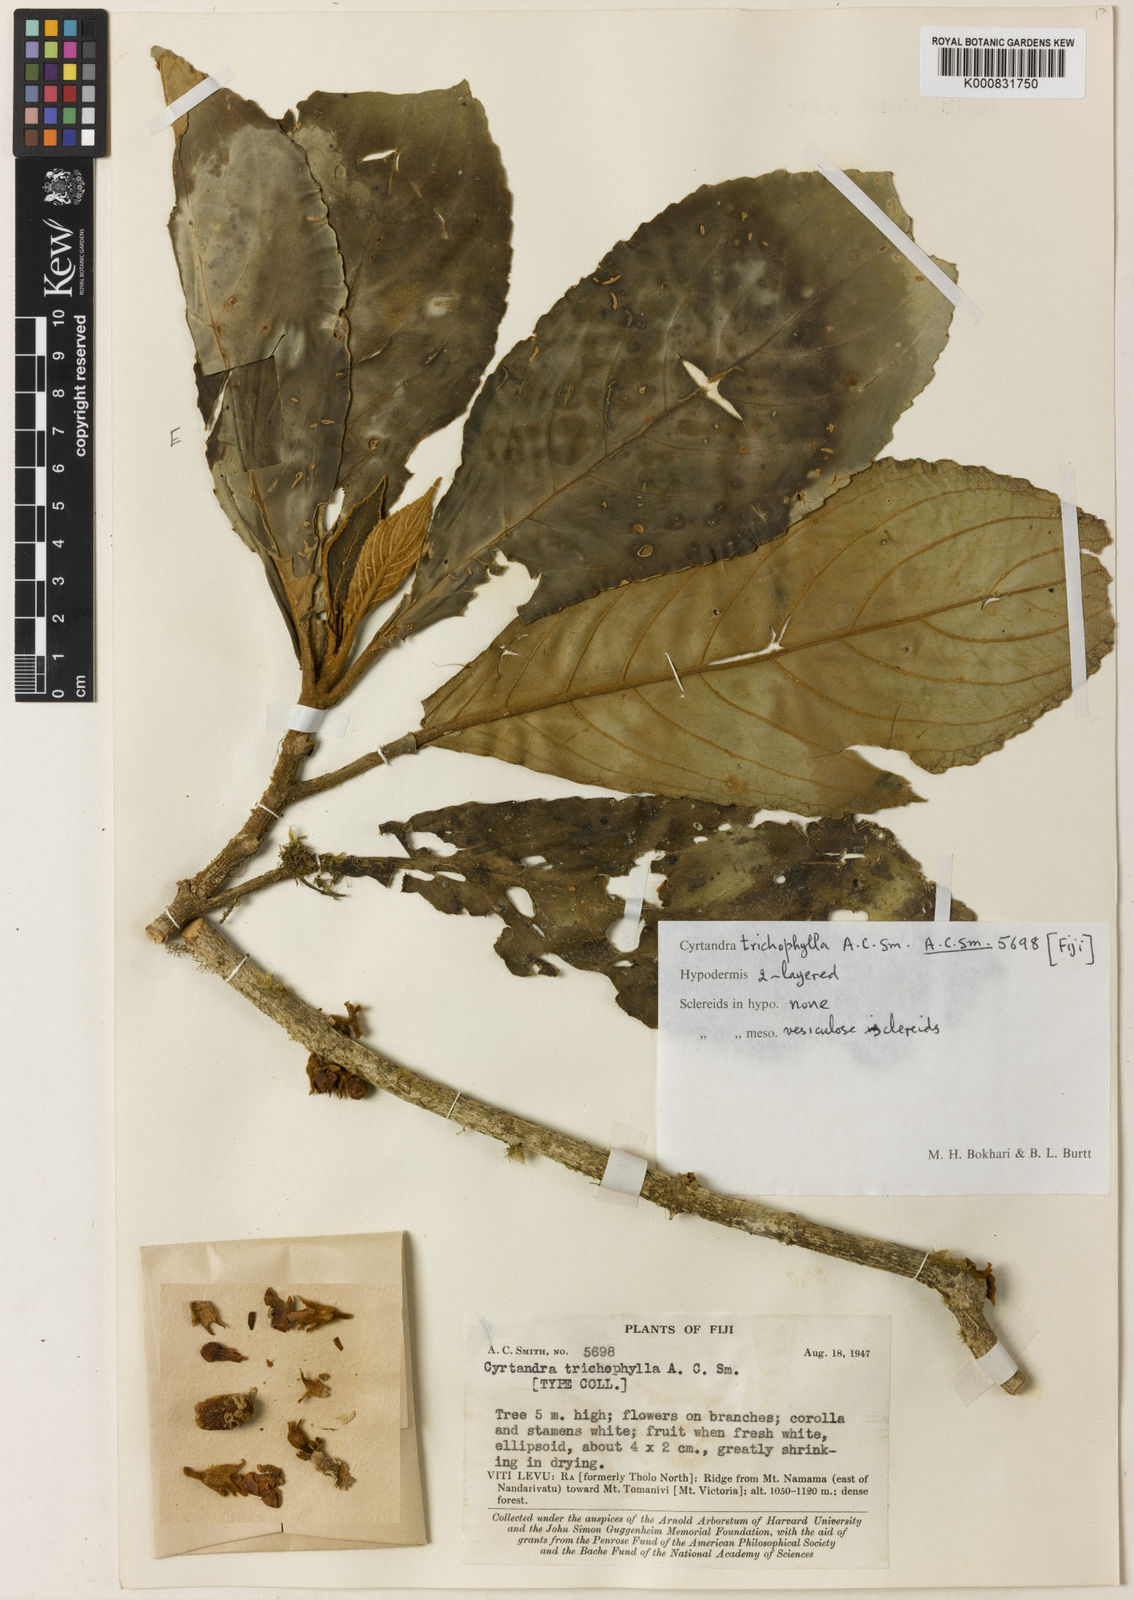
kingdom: Plantae
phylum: Tracheophyta
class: Magnoliopsida
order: Lamiales
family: Gesneriaceae
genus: Cyrtandra
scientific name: Cyrtandra trichophylla
